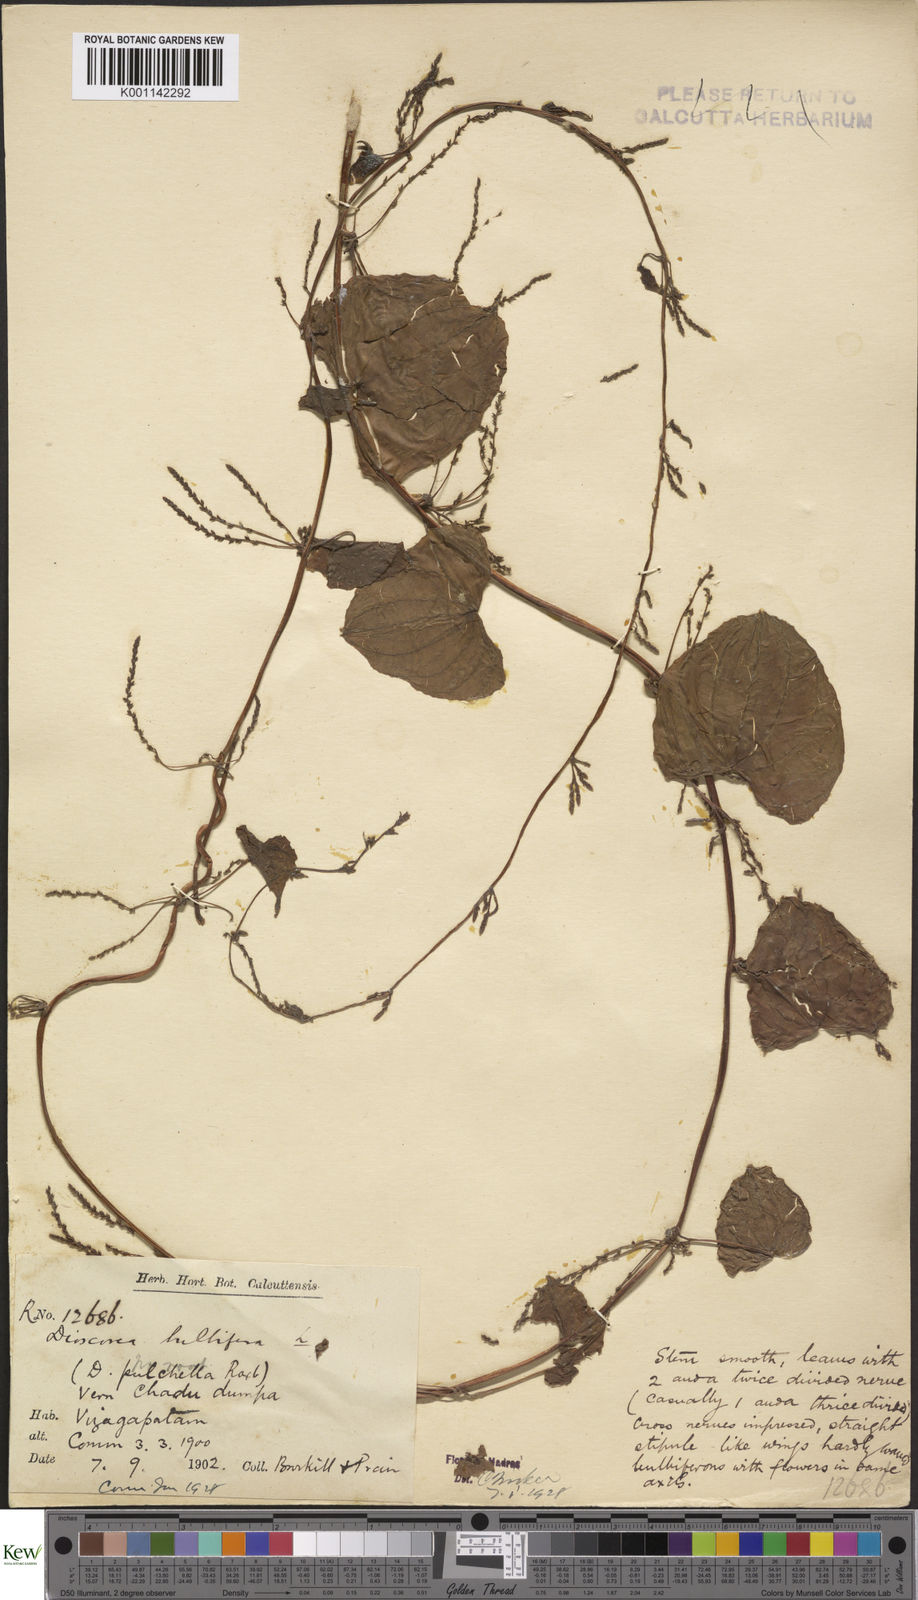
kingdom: Plantae
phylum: Tracheophyta
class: Liliopsida
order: Dioscoreales
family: Dioscoreaceae
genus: Dioscorea
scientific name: Dioscorea bulbifera
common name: Air yam
